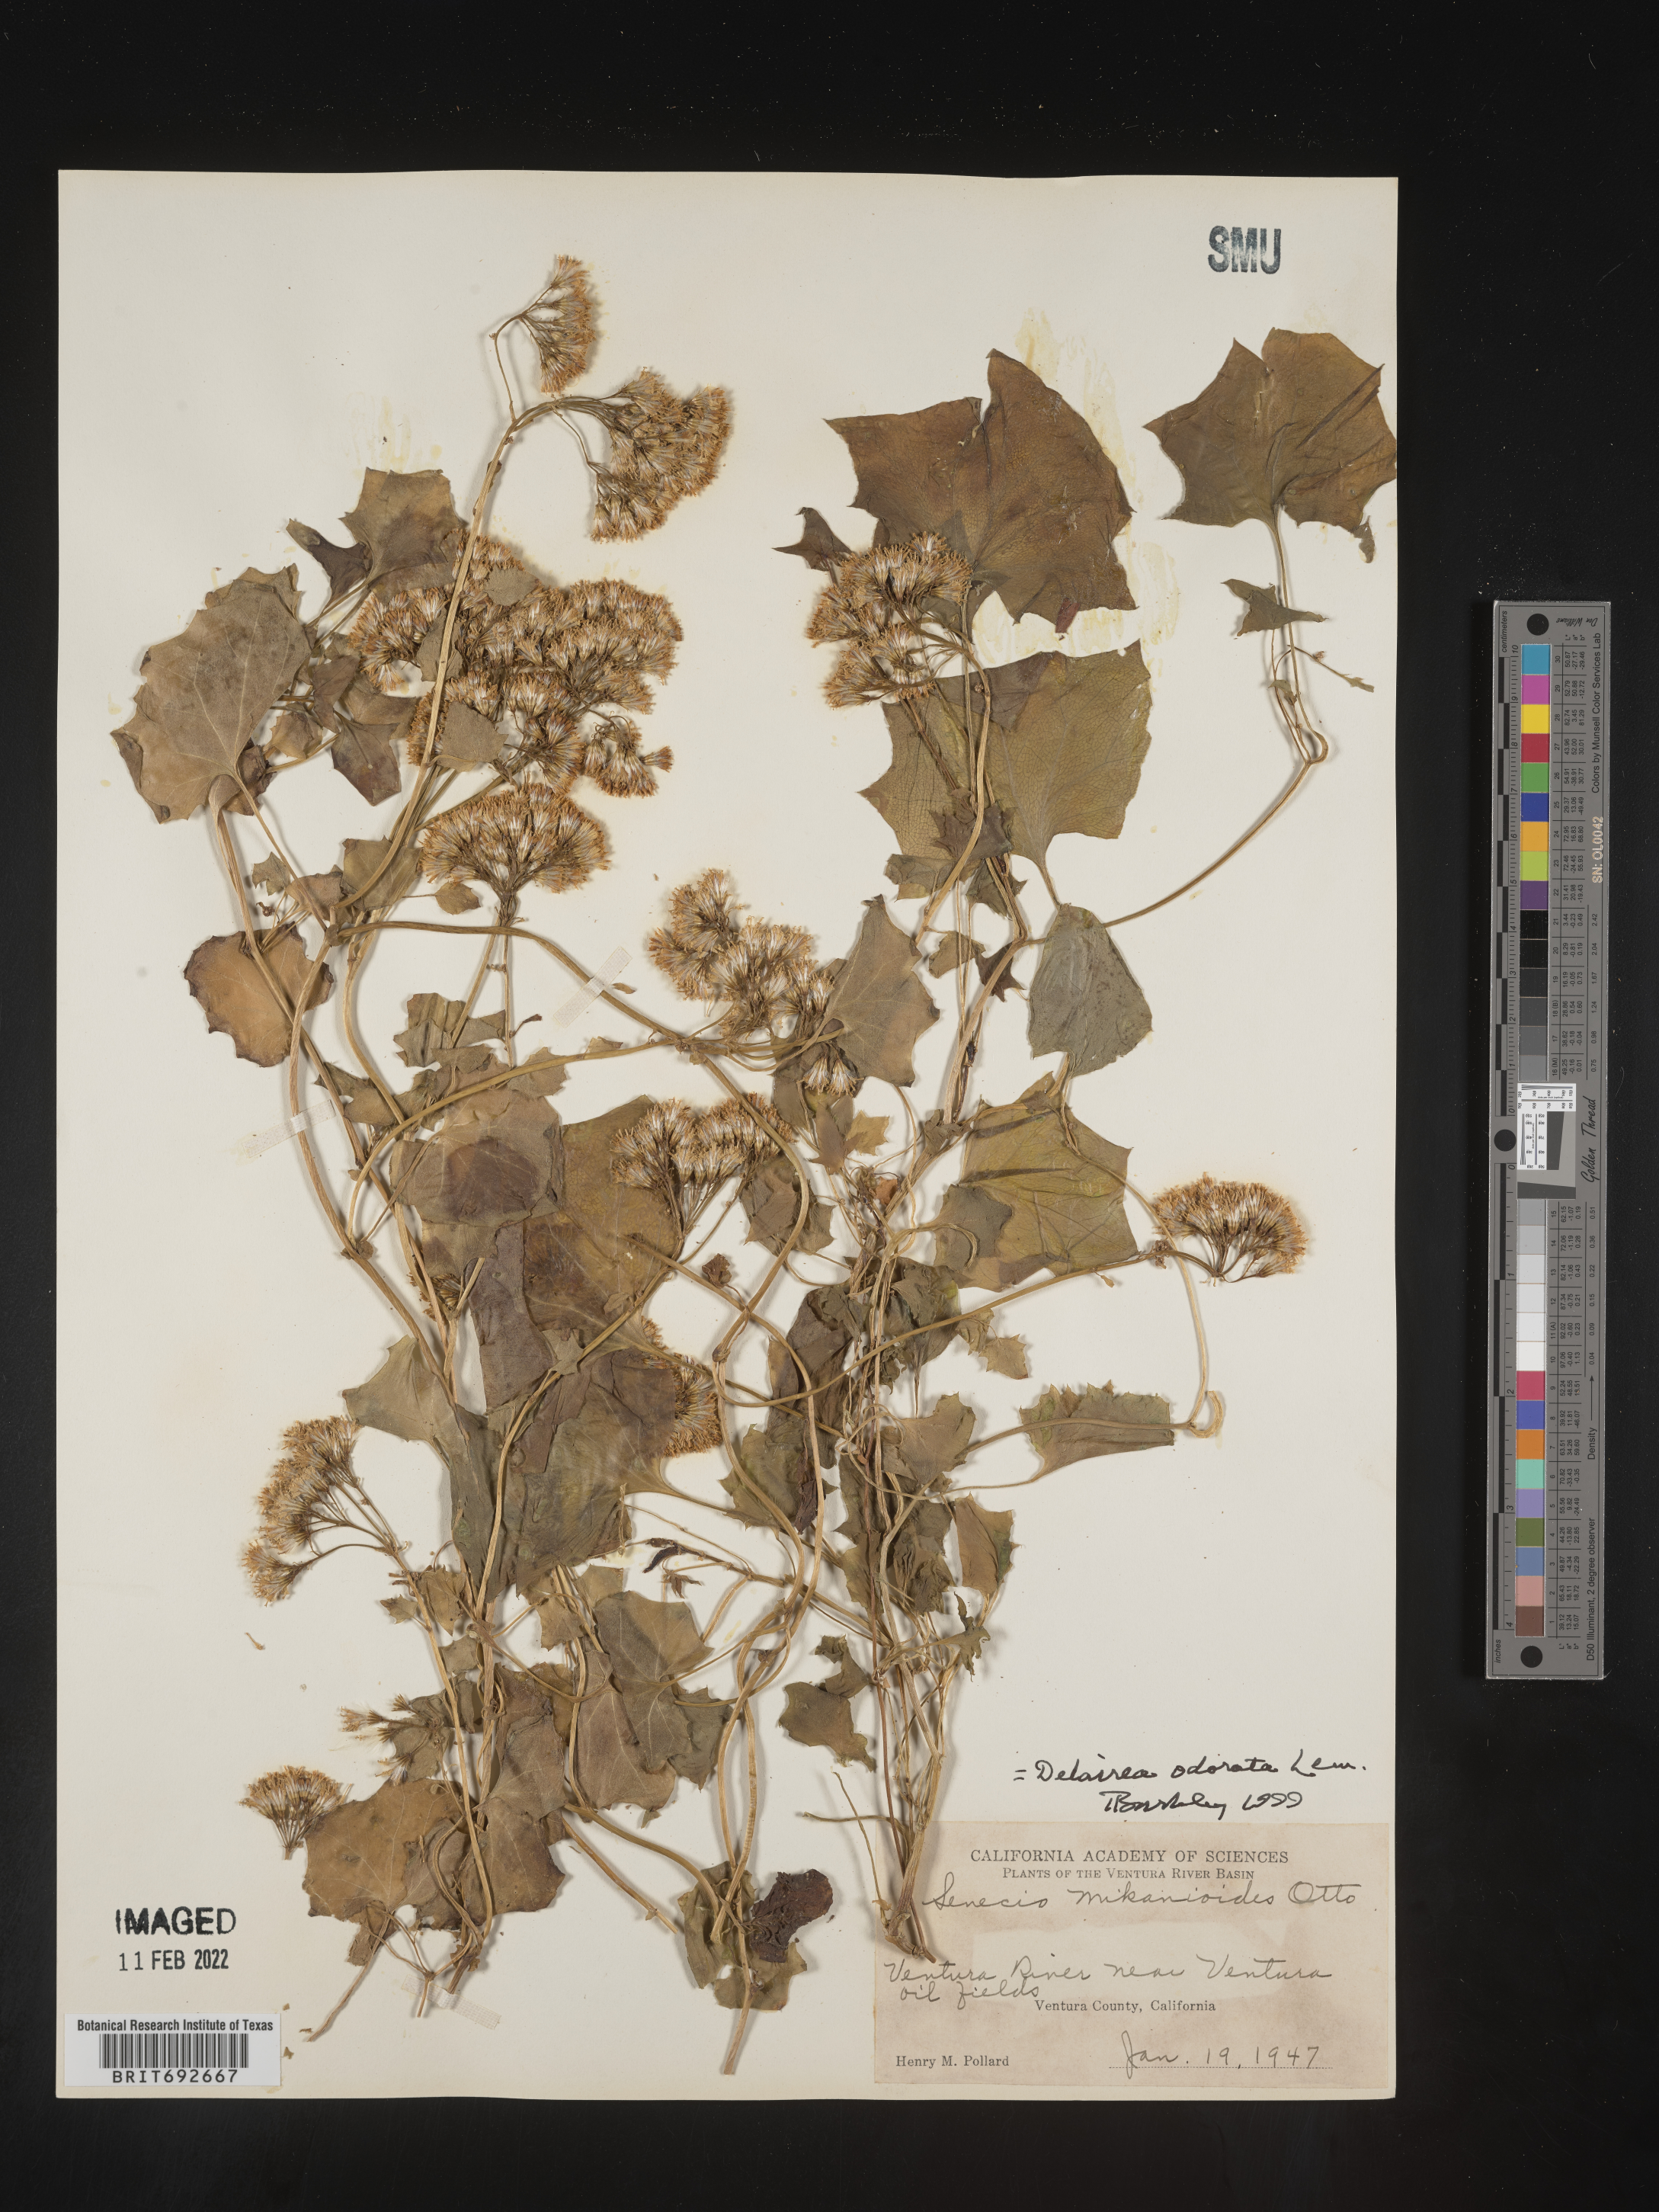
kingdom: Plantae
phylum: Tracheophyta
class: Magnoliopsida
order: Asterales
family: Asteraceae
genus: Delairea
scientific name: Delairea odorata
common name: Cape-ivy
